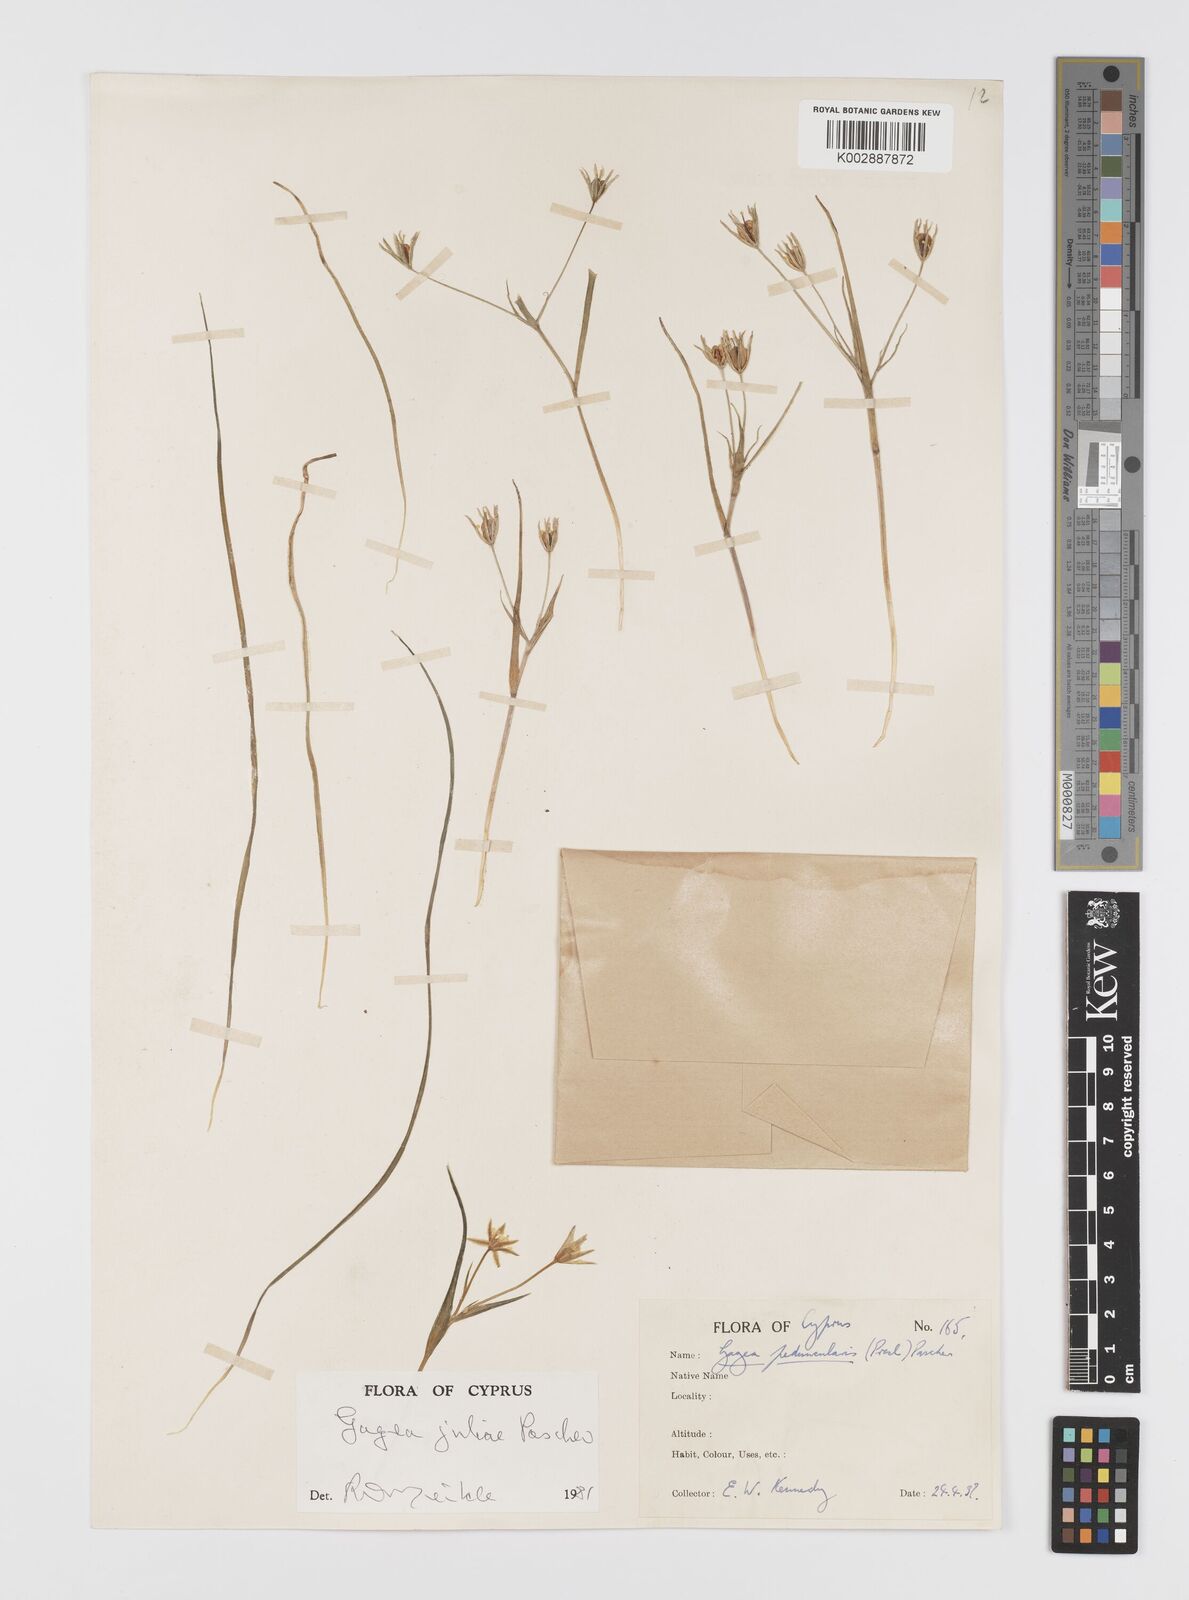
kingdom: Plantae
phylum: Tracheophyta
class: Liliopsida
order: Liliales
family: Liliaceae
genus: Gagea
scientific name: Gagea juliae
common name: Julia’s gagea
